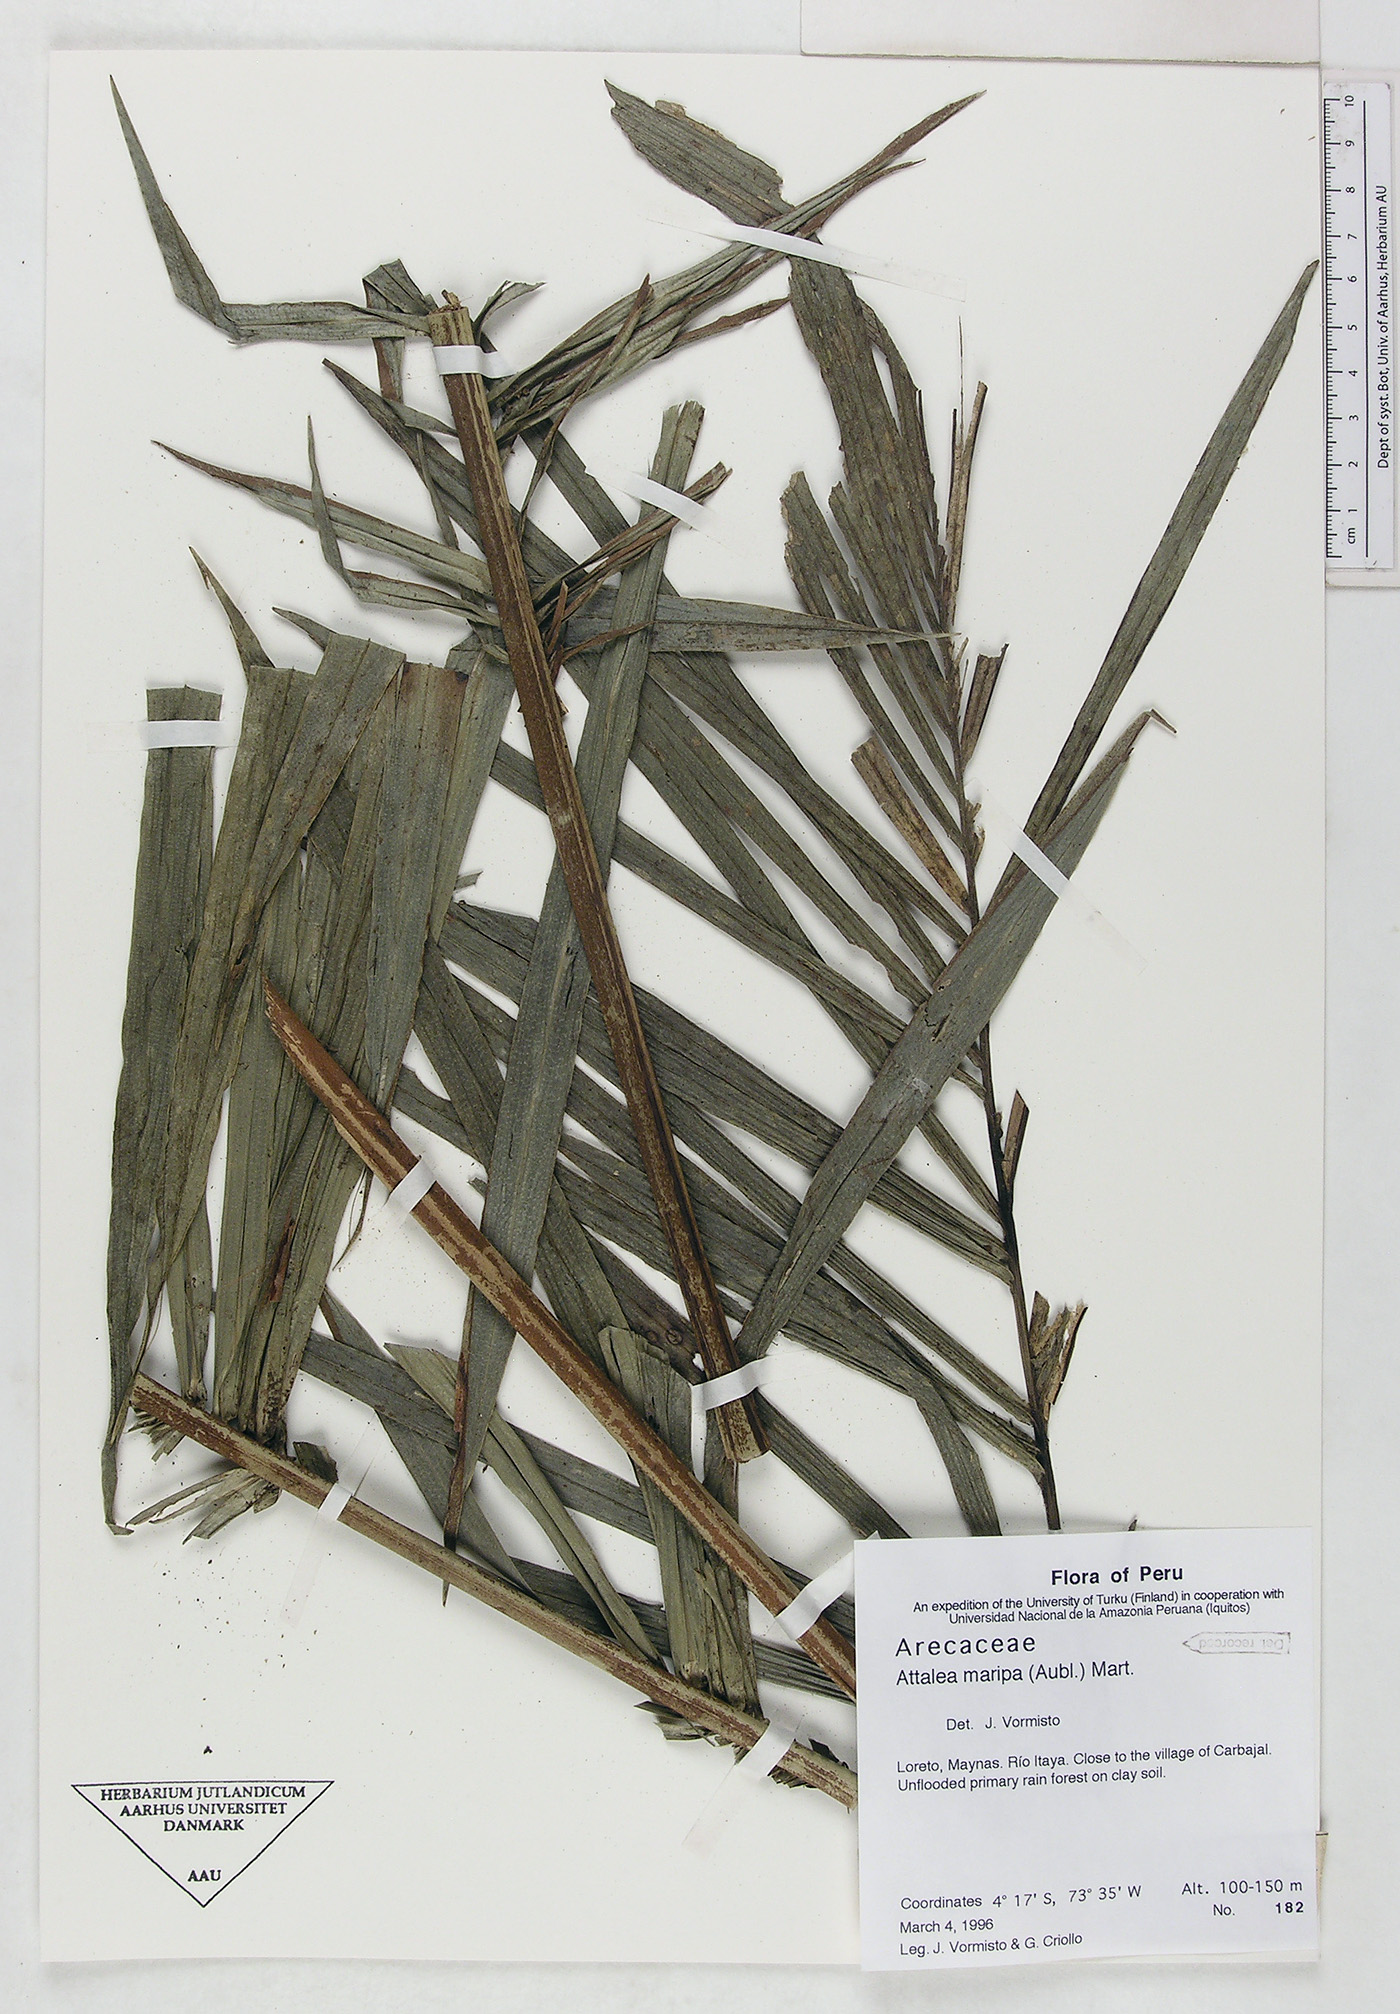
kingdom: Plantae
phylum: Tracheophyta
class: Liliopsida
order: Arecales
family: Arecaceae
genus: Attalea
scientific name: Attalea maripa
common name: Maripa palm
